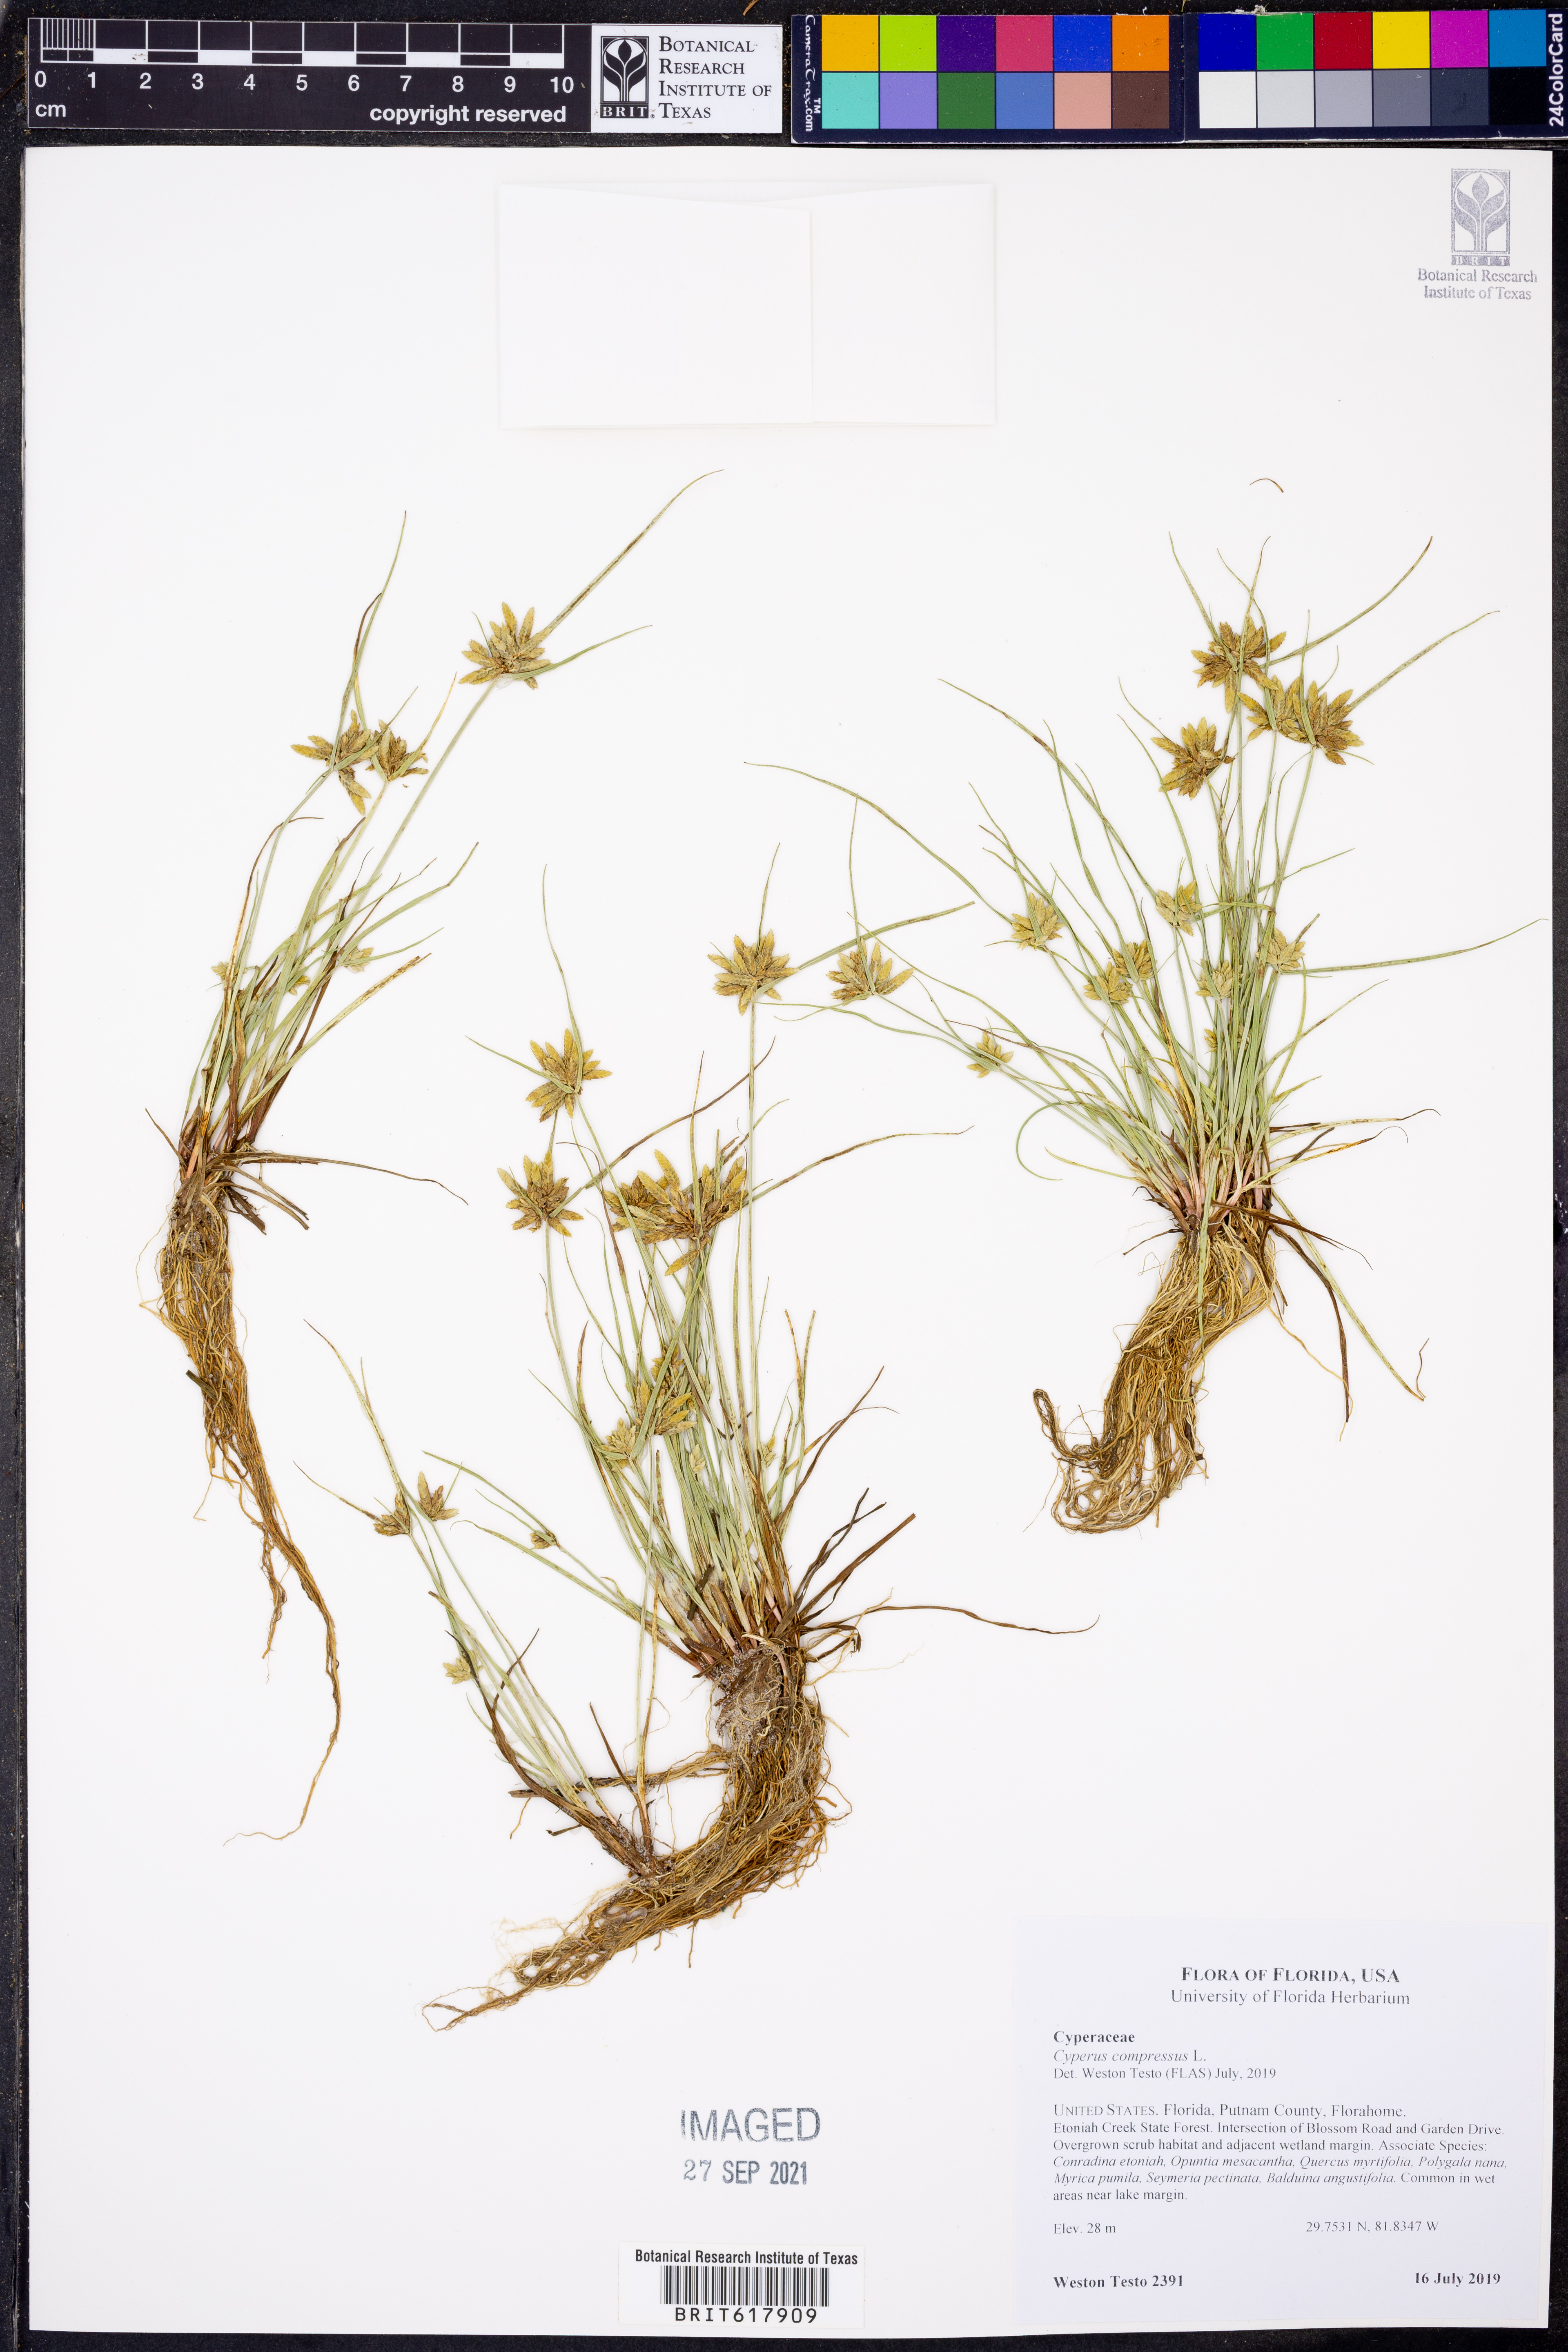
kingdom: Plantae
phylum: Tracheophyta
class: Liliopsida
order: Poales
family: Cyperaceae
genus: Cyperus
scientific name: Cyperus compressus
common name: Poorland flatsedge
